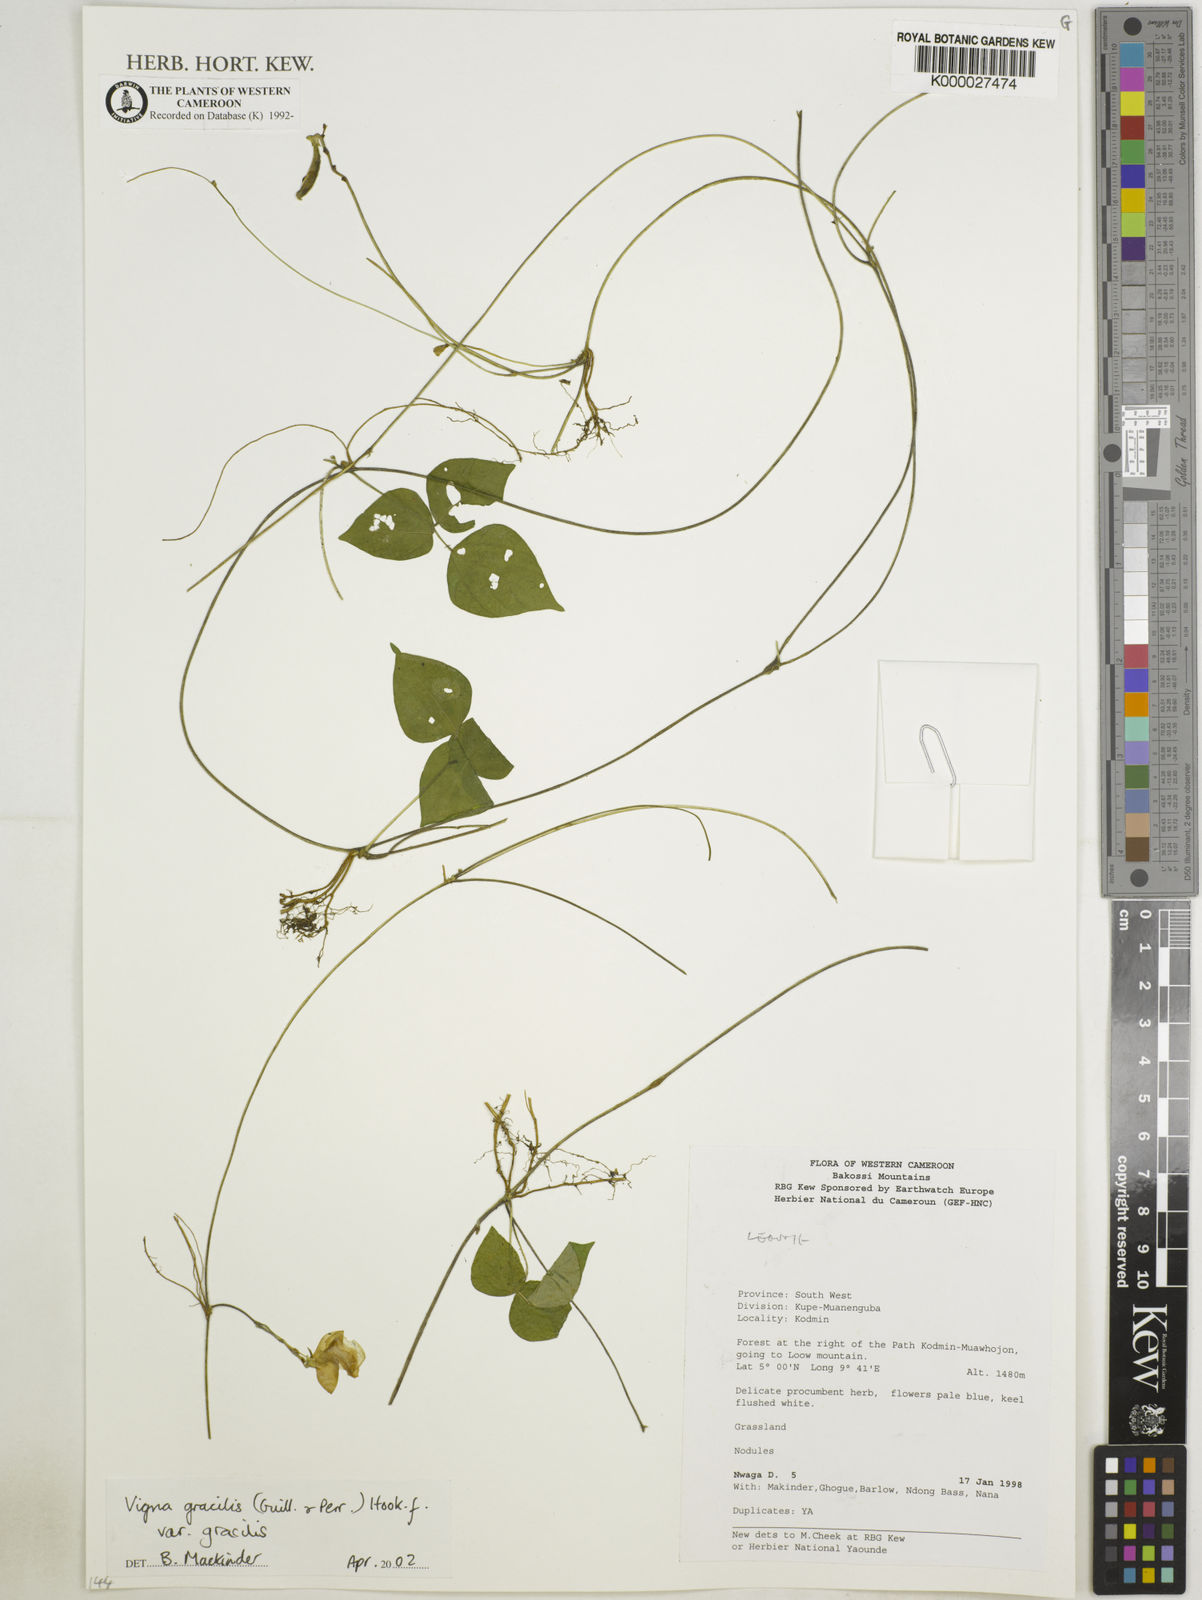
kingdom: Plantae
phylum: Tracheophyta
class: Magnoliopsida
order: Fabales
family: Fabaceae
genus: Vigna
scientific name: Vigna gracilis
